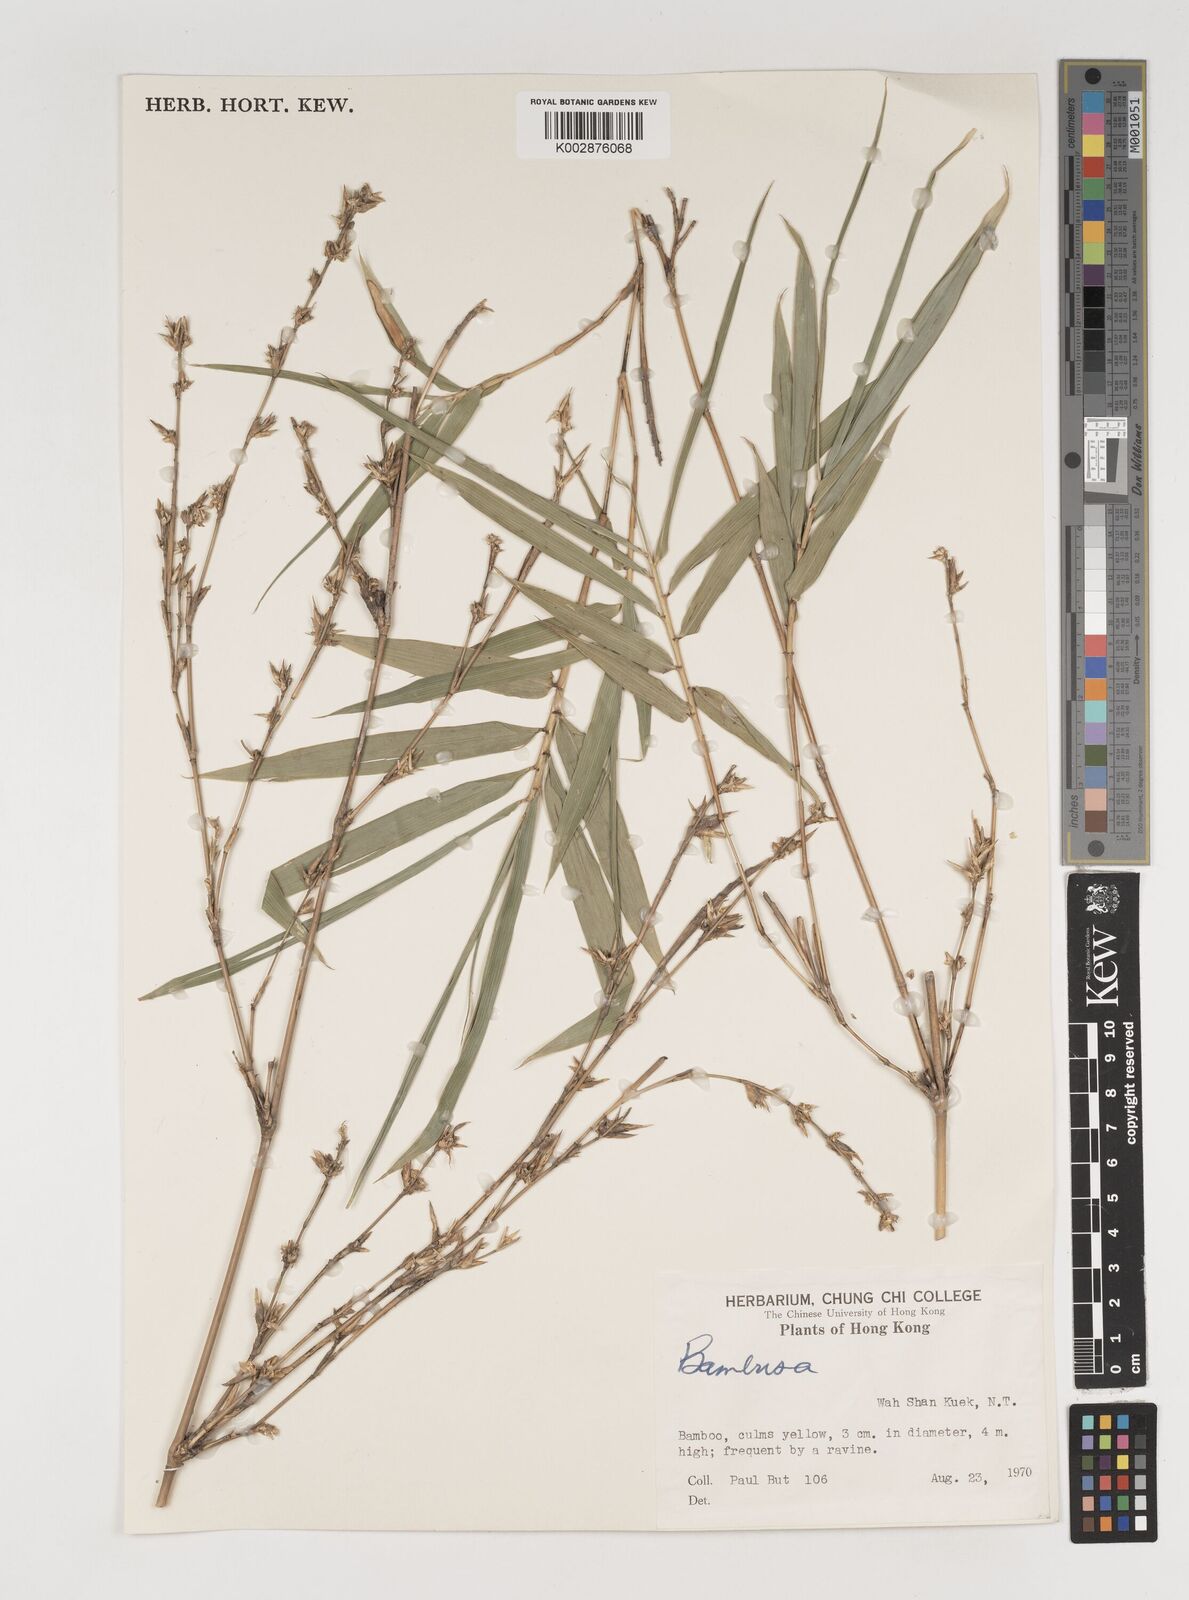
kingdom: Plantae
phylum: Tracheophyta
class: Liliopsida
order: Poales
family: Poaceae
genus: Bambusa
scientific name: Bambusa
